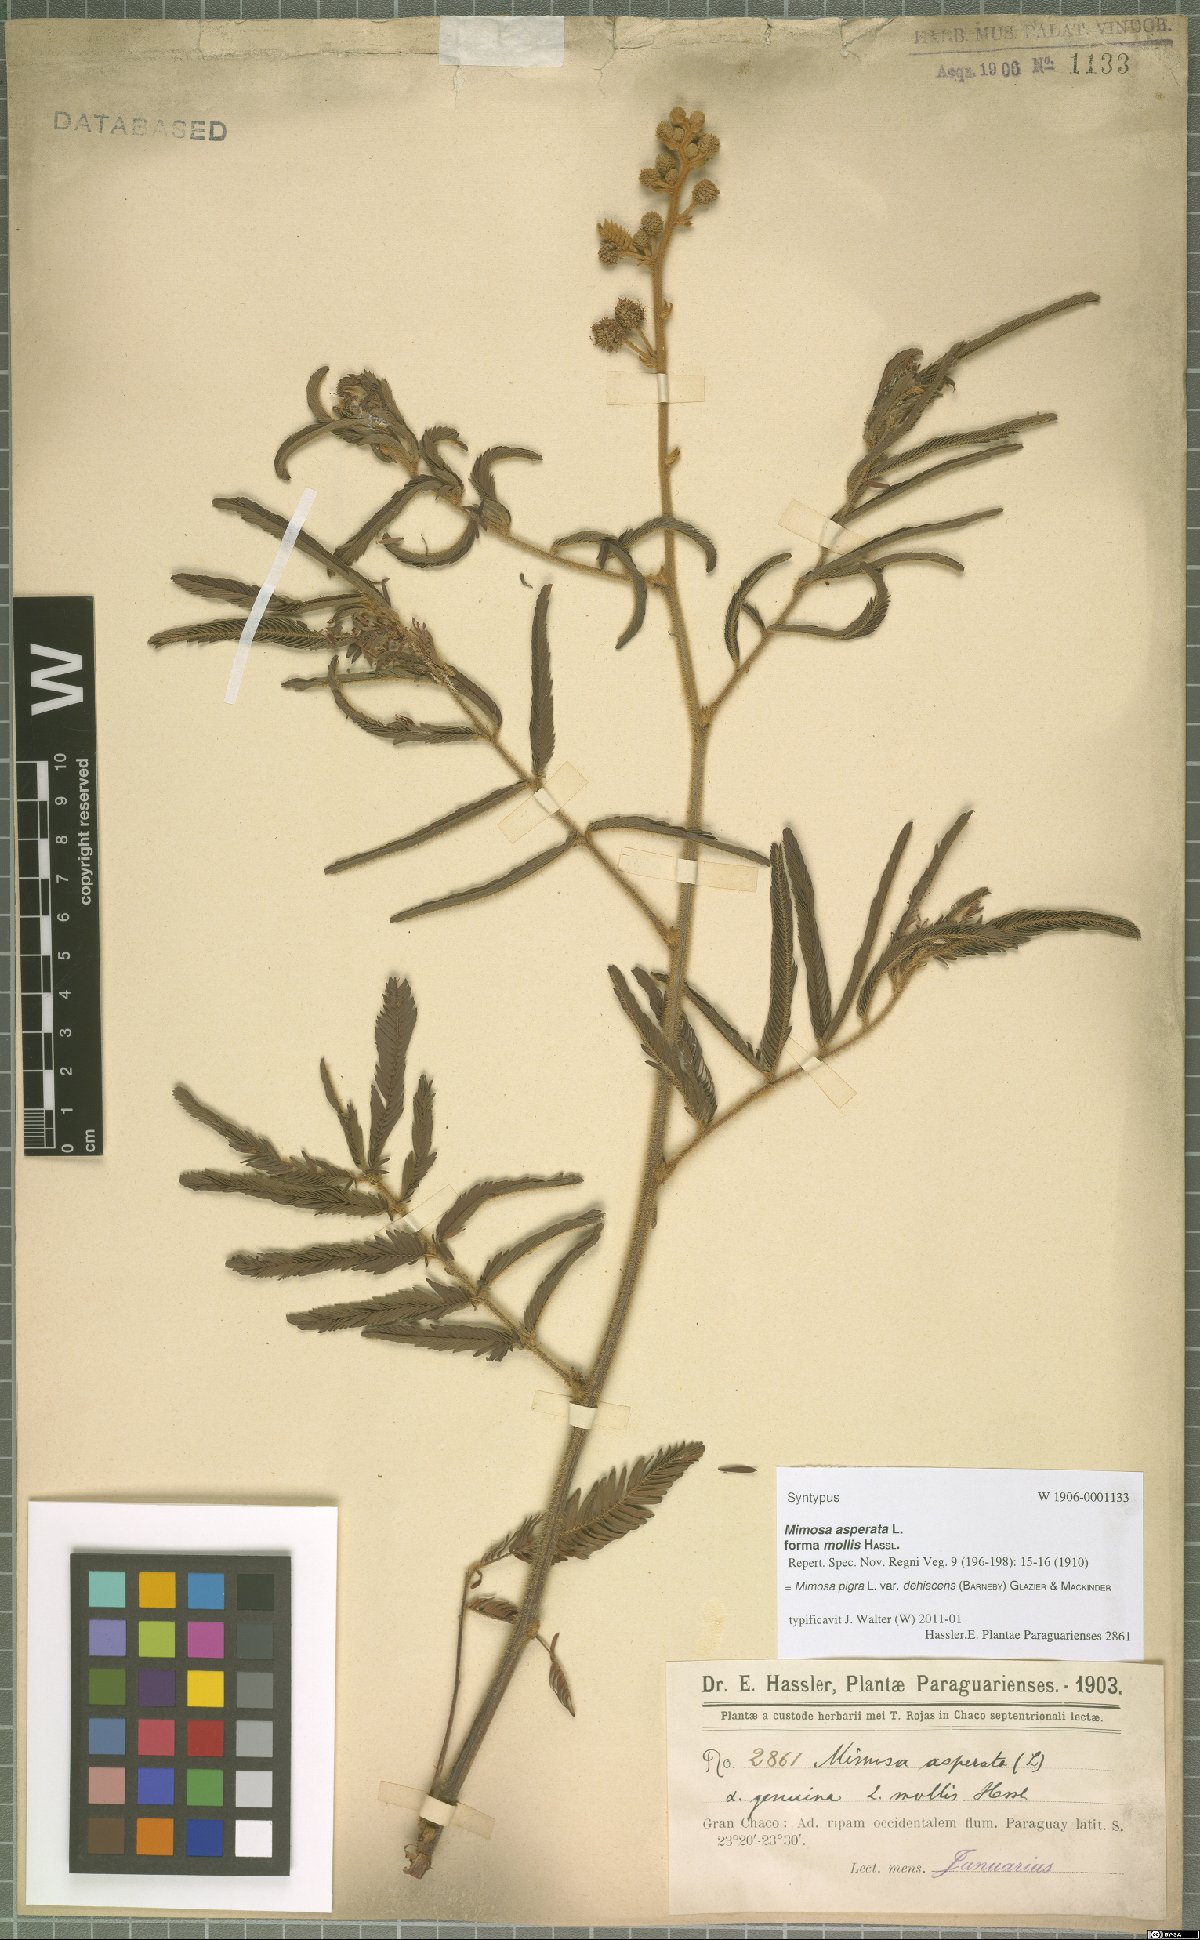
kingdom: Plantae
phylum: Tracheophyta
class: Magnoliopsida
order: Fabales
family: Fabaceae
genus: Mimosa
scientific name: Mimosa pigra
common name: Black mimosa
